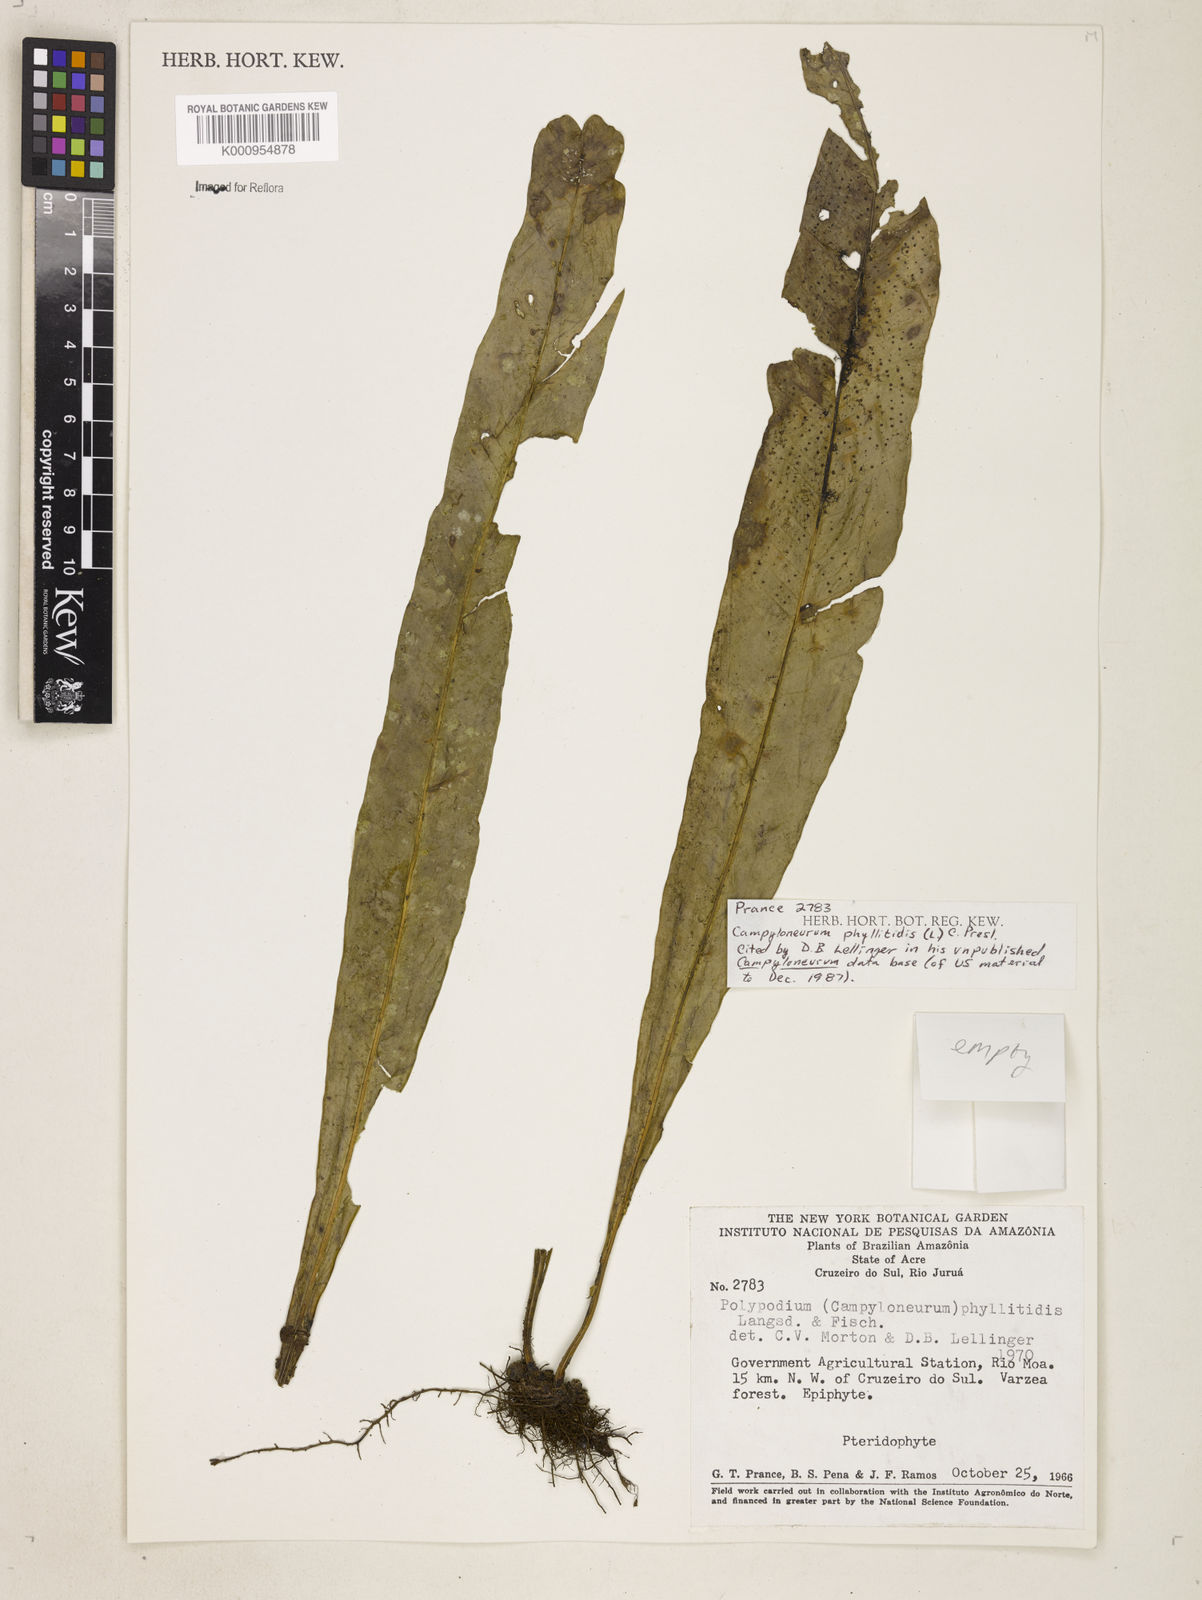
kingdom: Plantae
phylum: Tracheophyta
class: Polypodiopsida
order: Polypodiales
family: Polypodiaceae
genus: Campyloneurum
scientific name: Campyloneurum phyllitidis
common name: Cow-tongue fern
